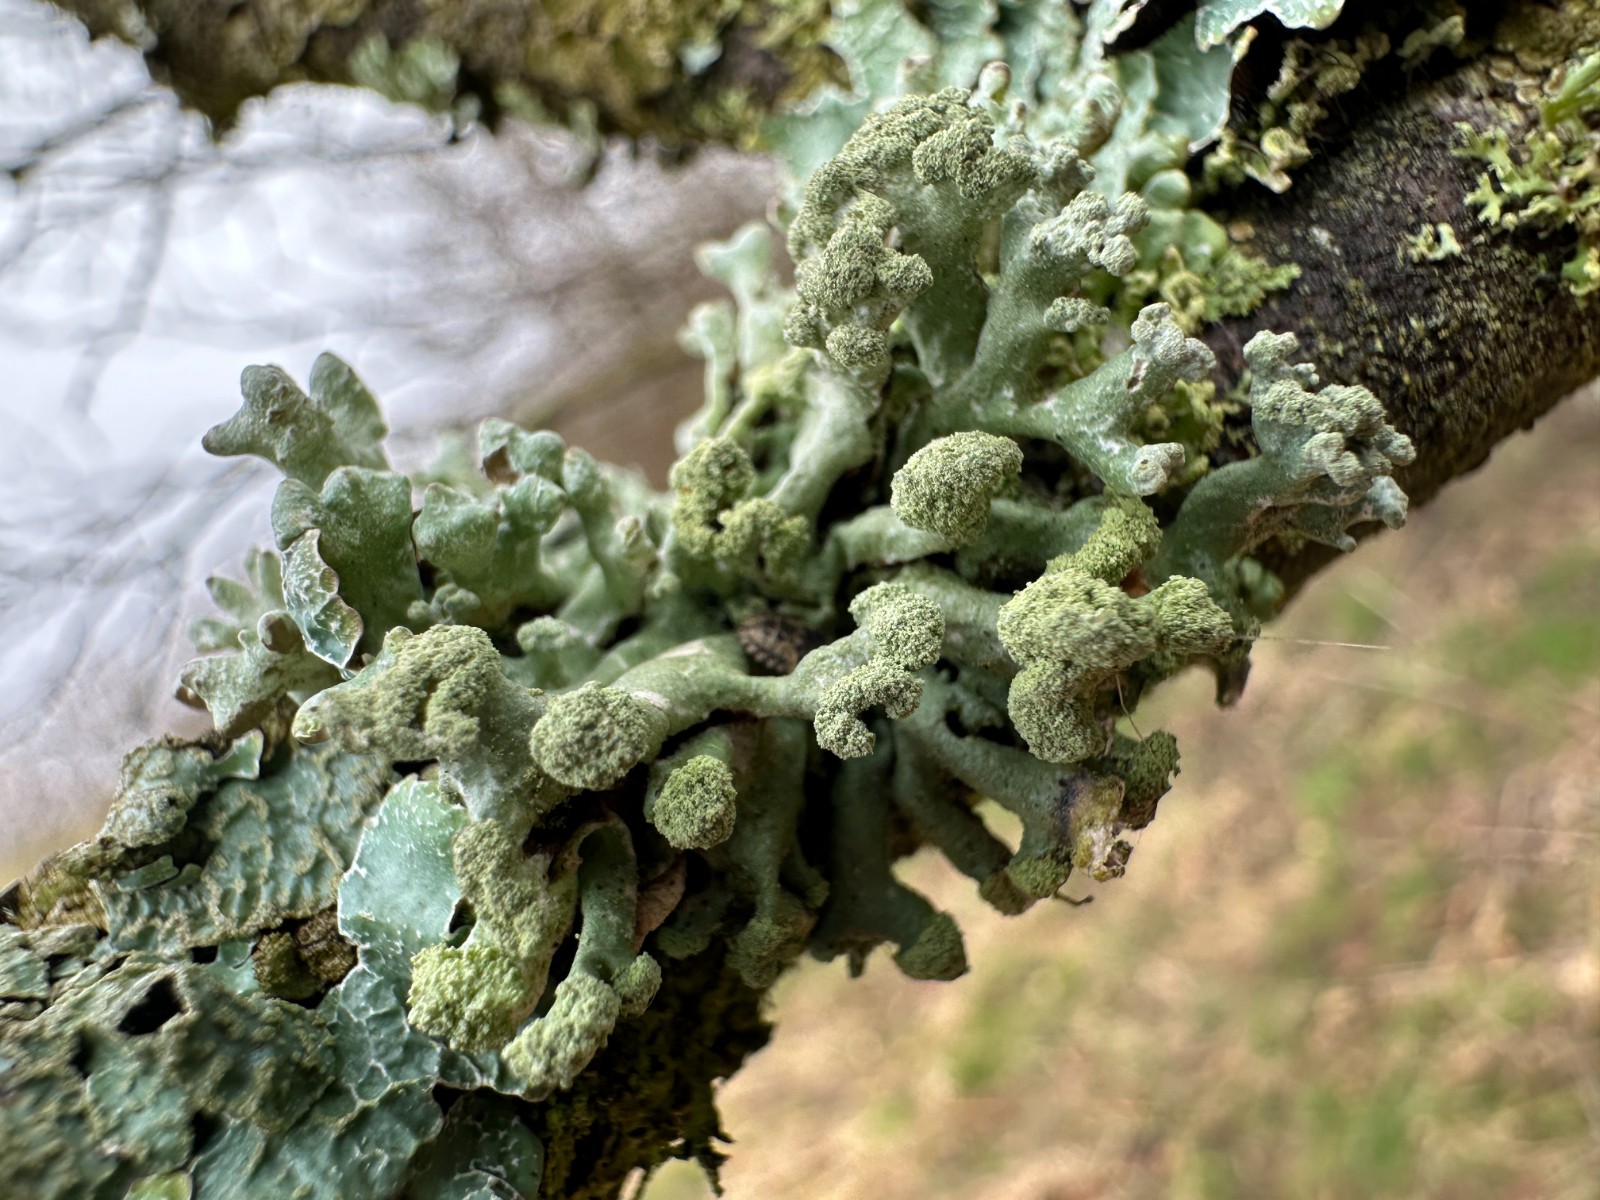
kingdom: Fungi
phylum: Ascomycota
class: Lecanoromycetes
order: Lecanorales
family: Parmeliaceae
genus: Hypogymnia
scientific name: Hypogymnia tubulosa
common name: finger-kvistlav
